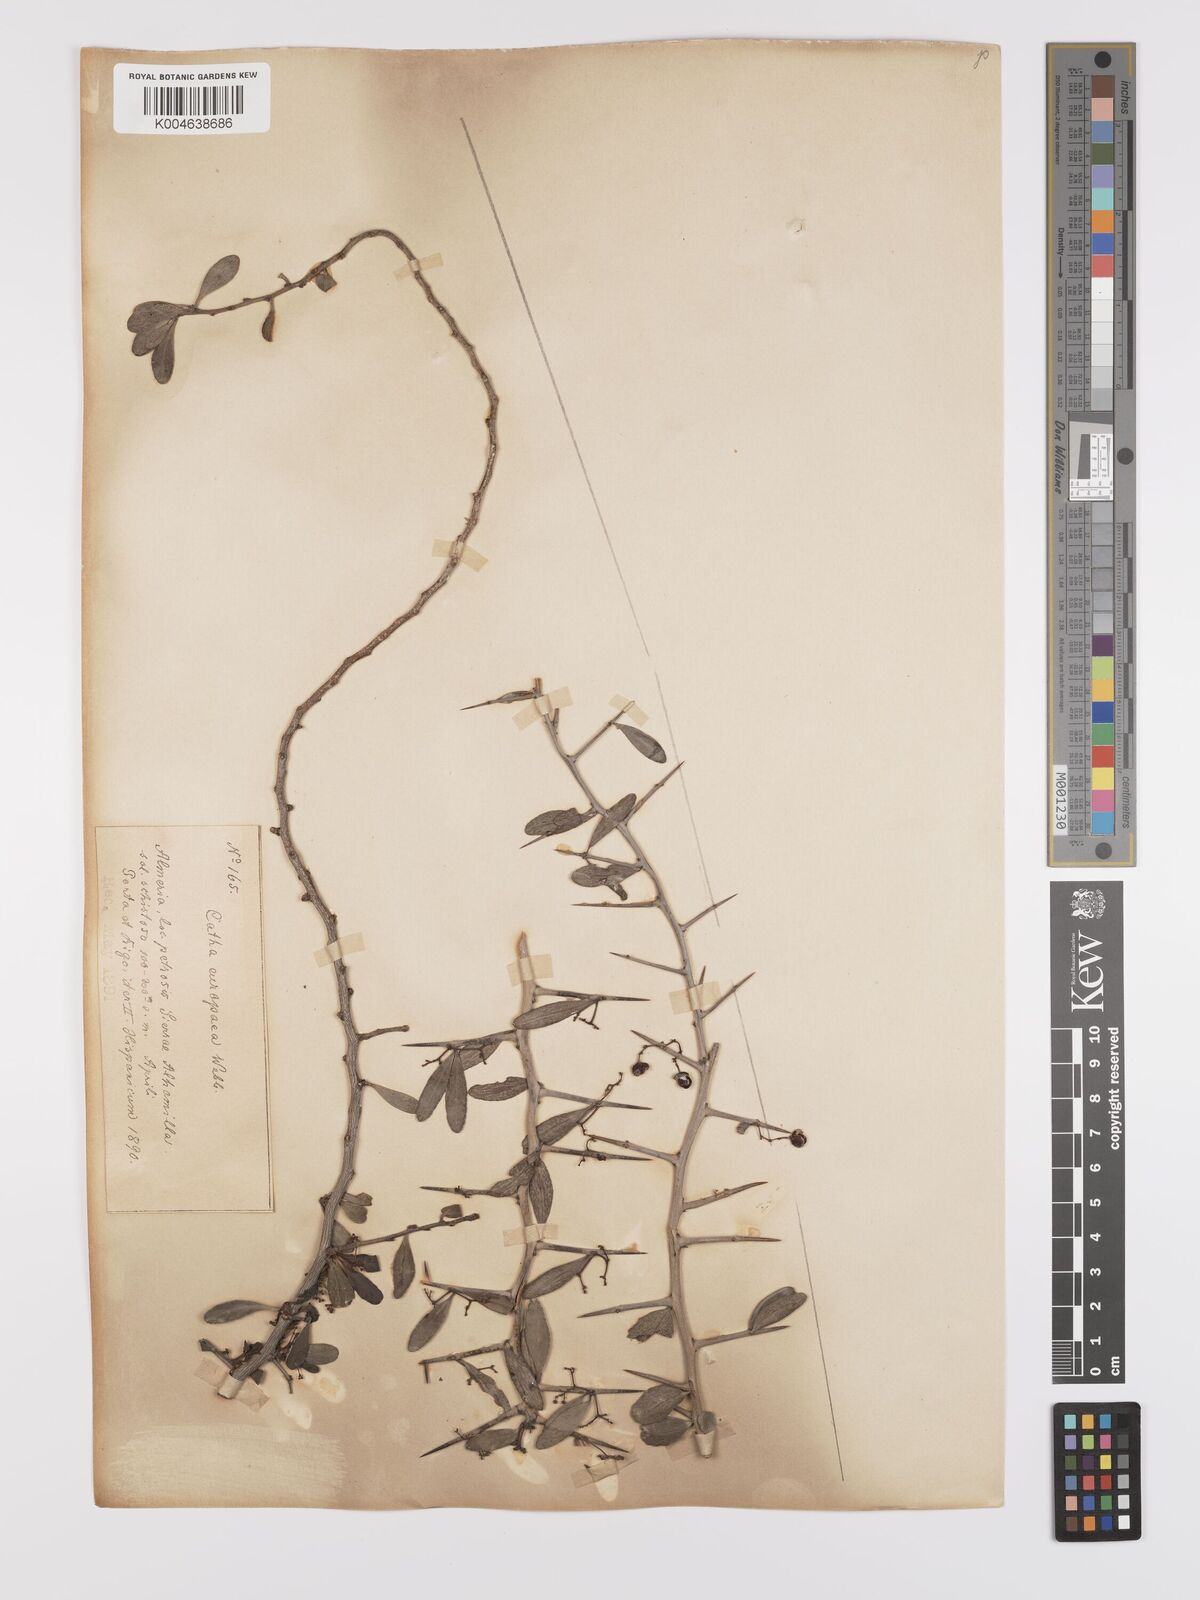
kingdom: Plantae
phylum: Tracheophyta
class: Magnoliopsida
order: Celastrales
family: Celastraceae
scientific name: Celastraceae
